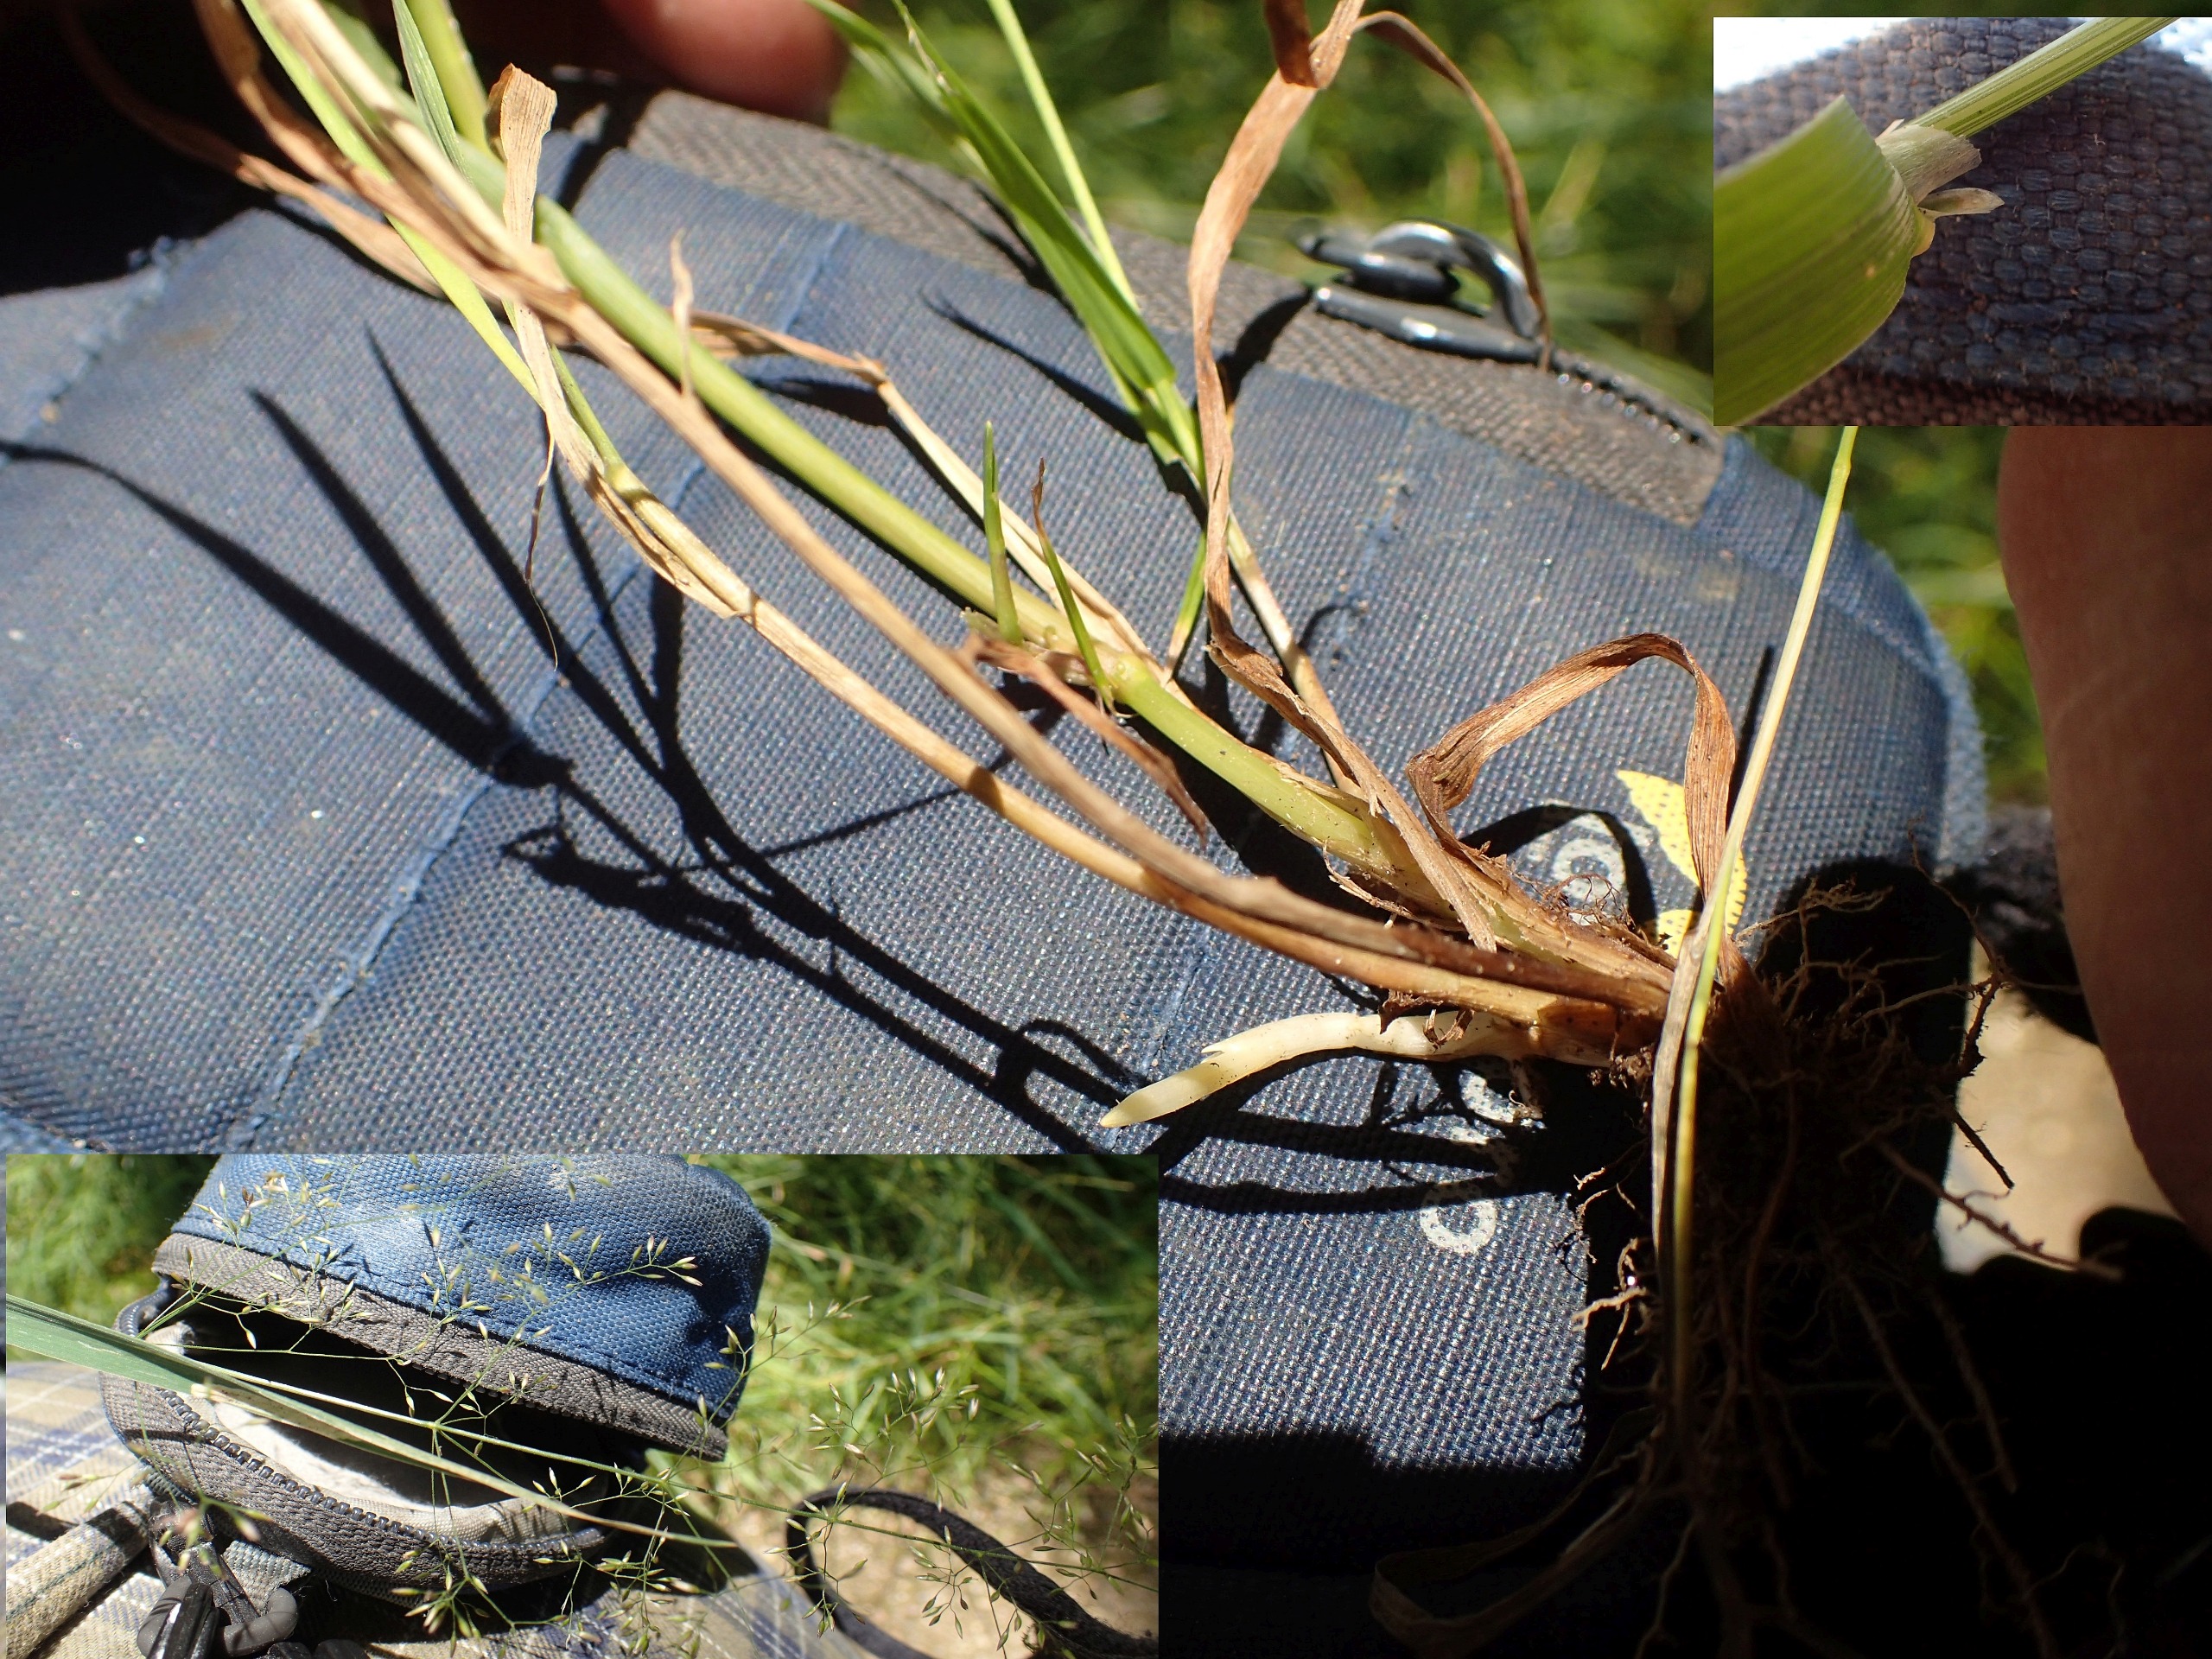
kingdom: Plantae
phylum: Tracheophyta
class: Liliopsida
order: Poales
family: Poaceae
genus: Agrostis
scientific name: Agrostis gigantea
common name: Stortoppet hvene
